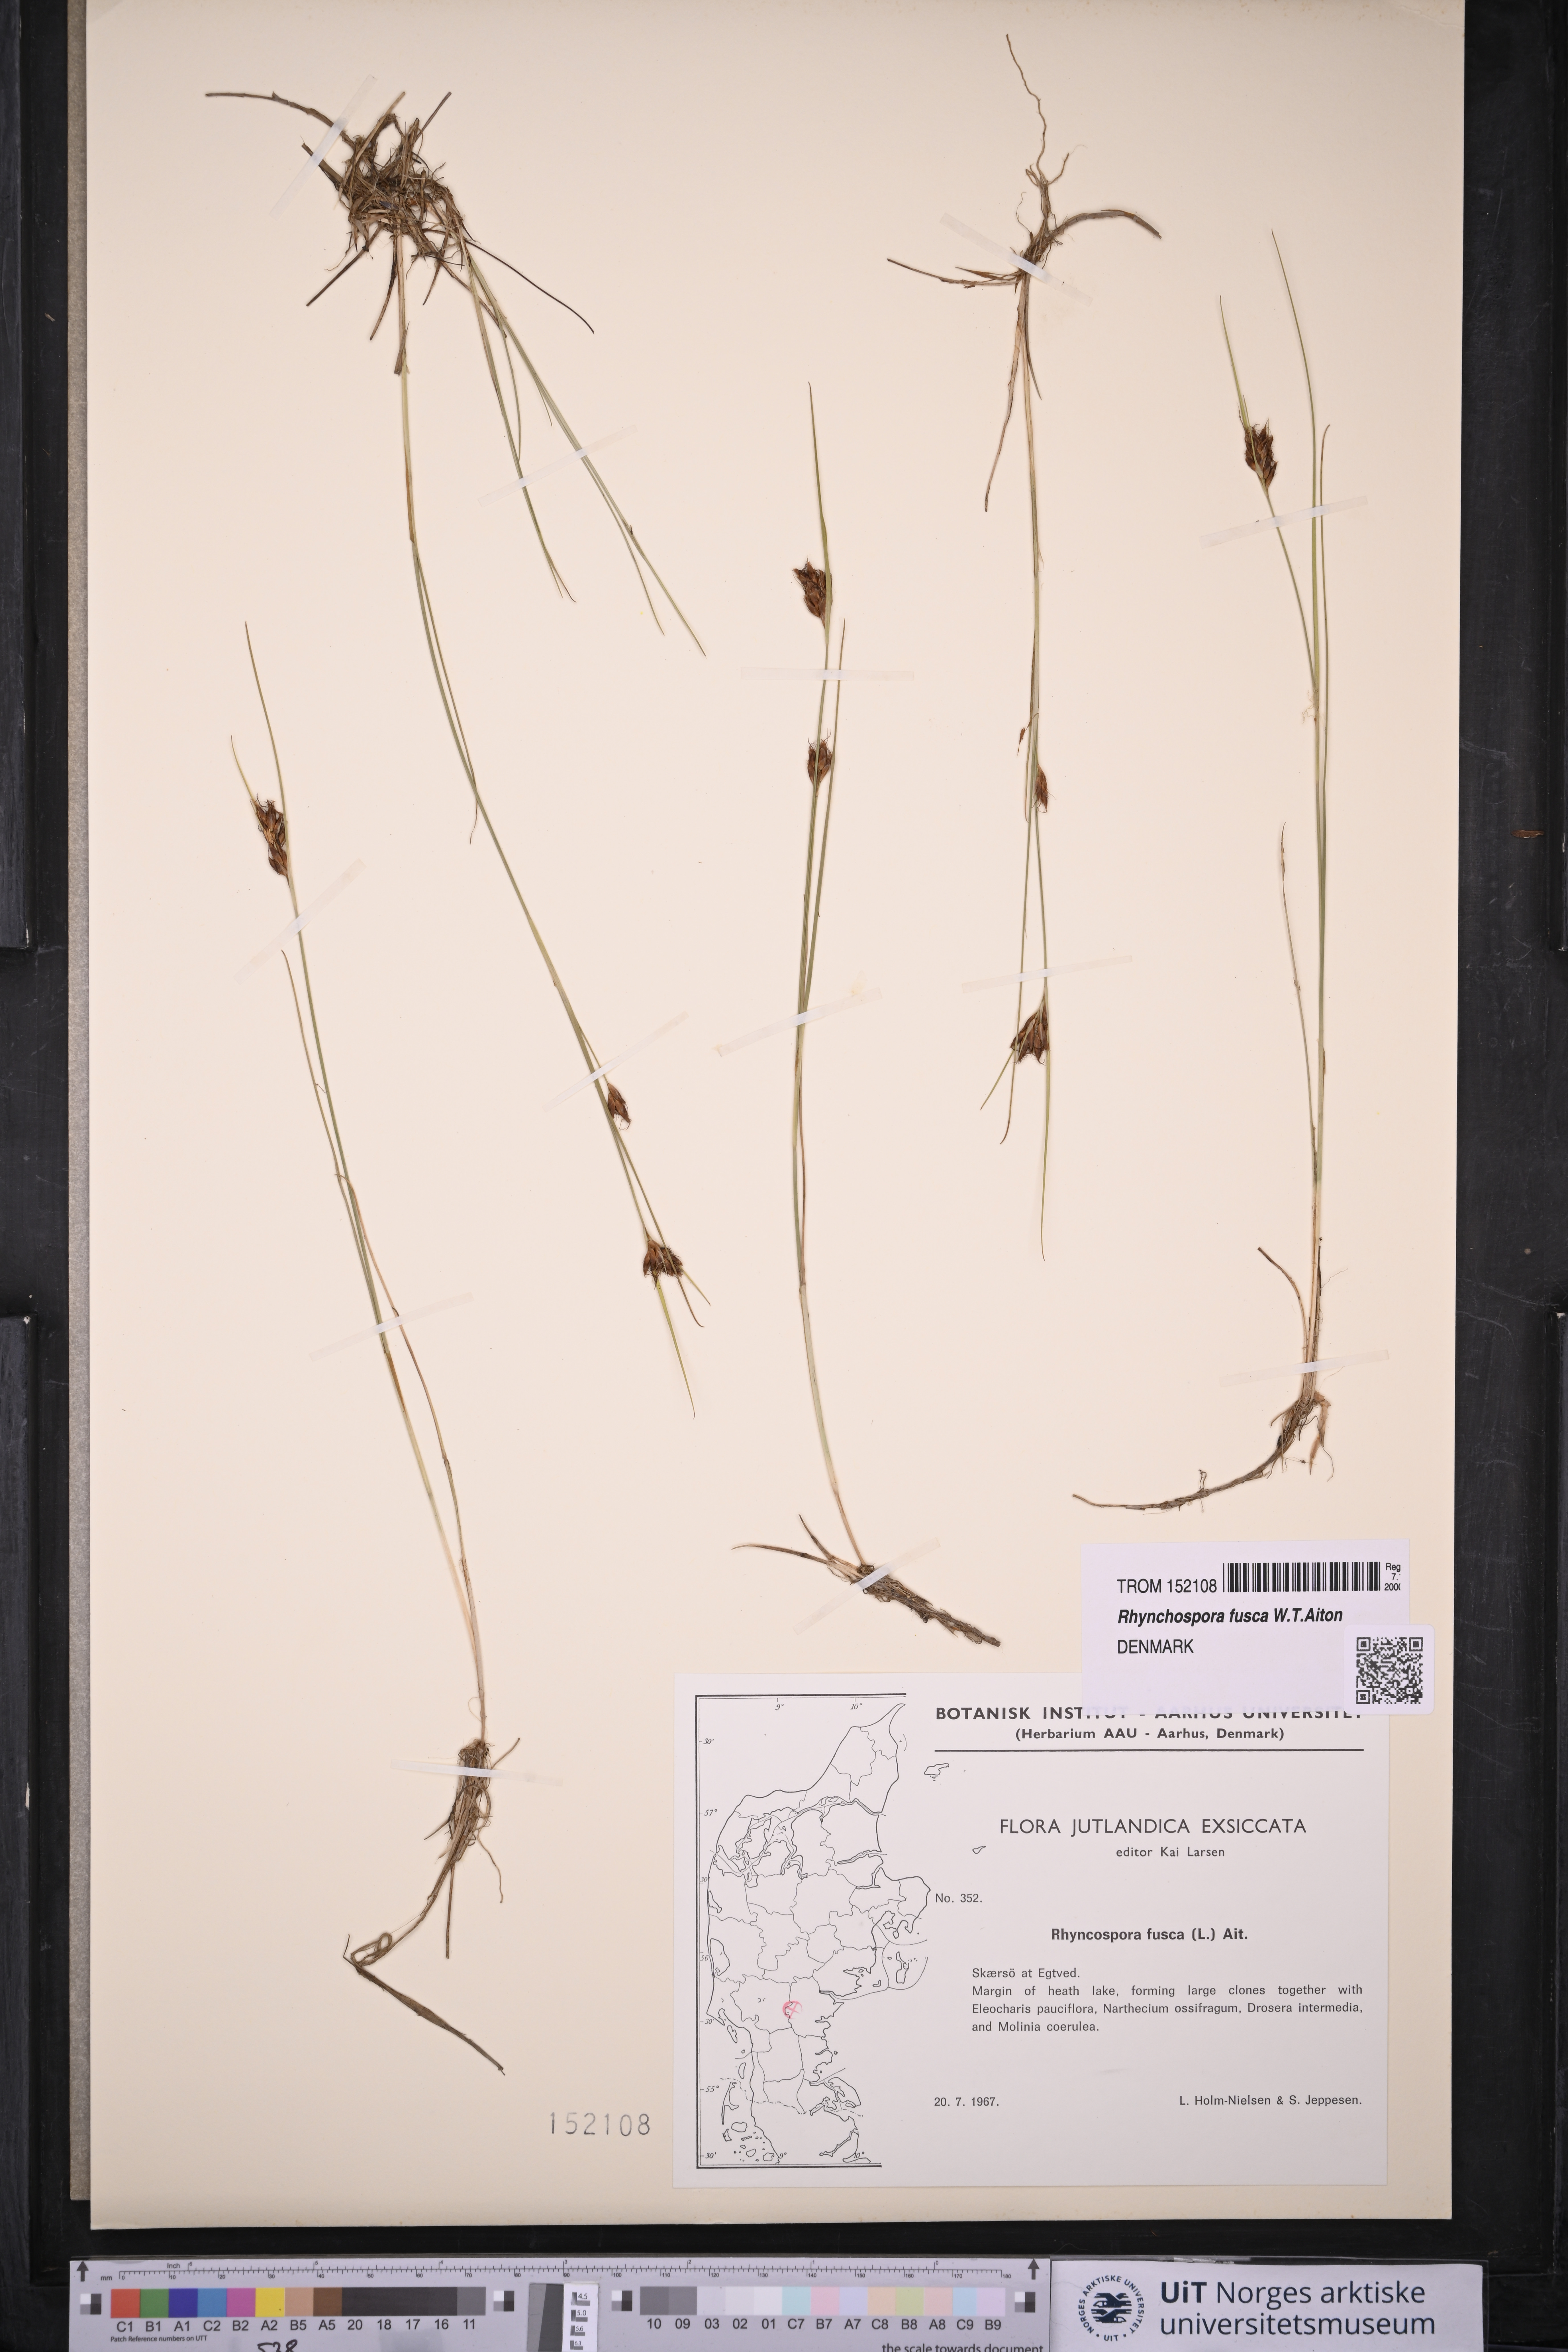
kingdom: Plantae
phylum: Tracheophyta
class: Liliopsida
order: Poales
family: Cyperaceae
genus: Rhynchospora
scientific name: Rhynchospora fusca
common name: Brown beak-sedge
